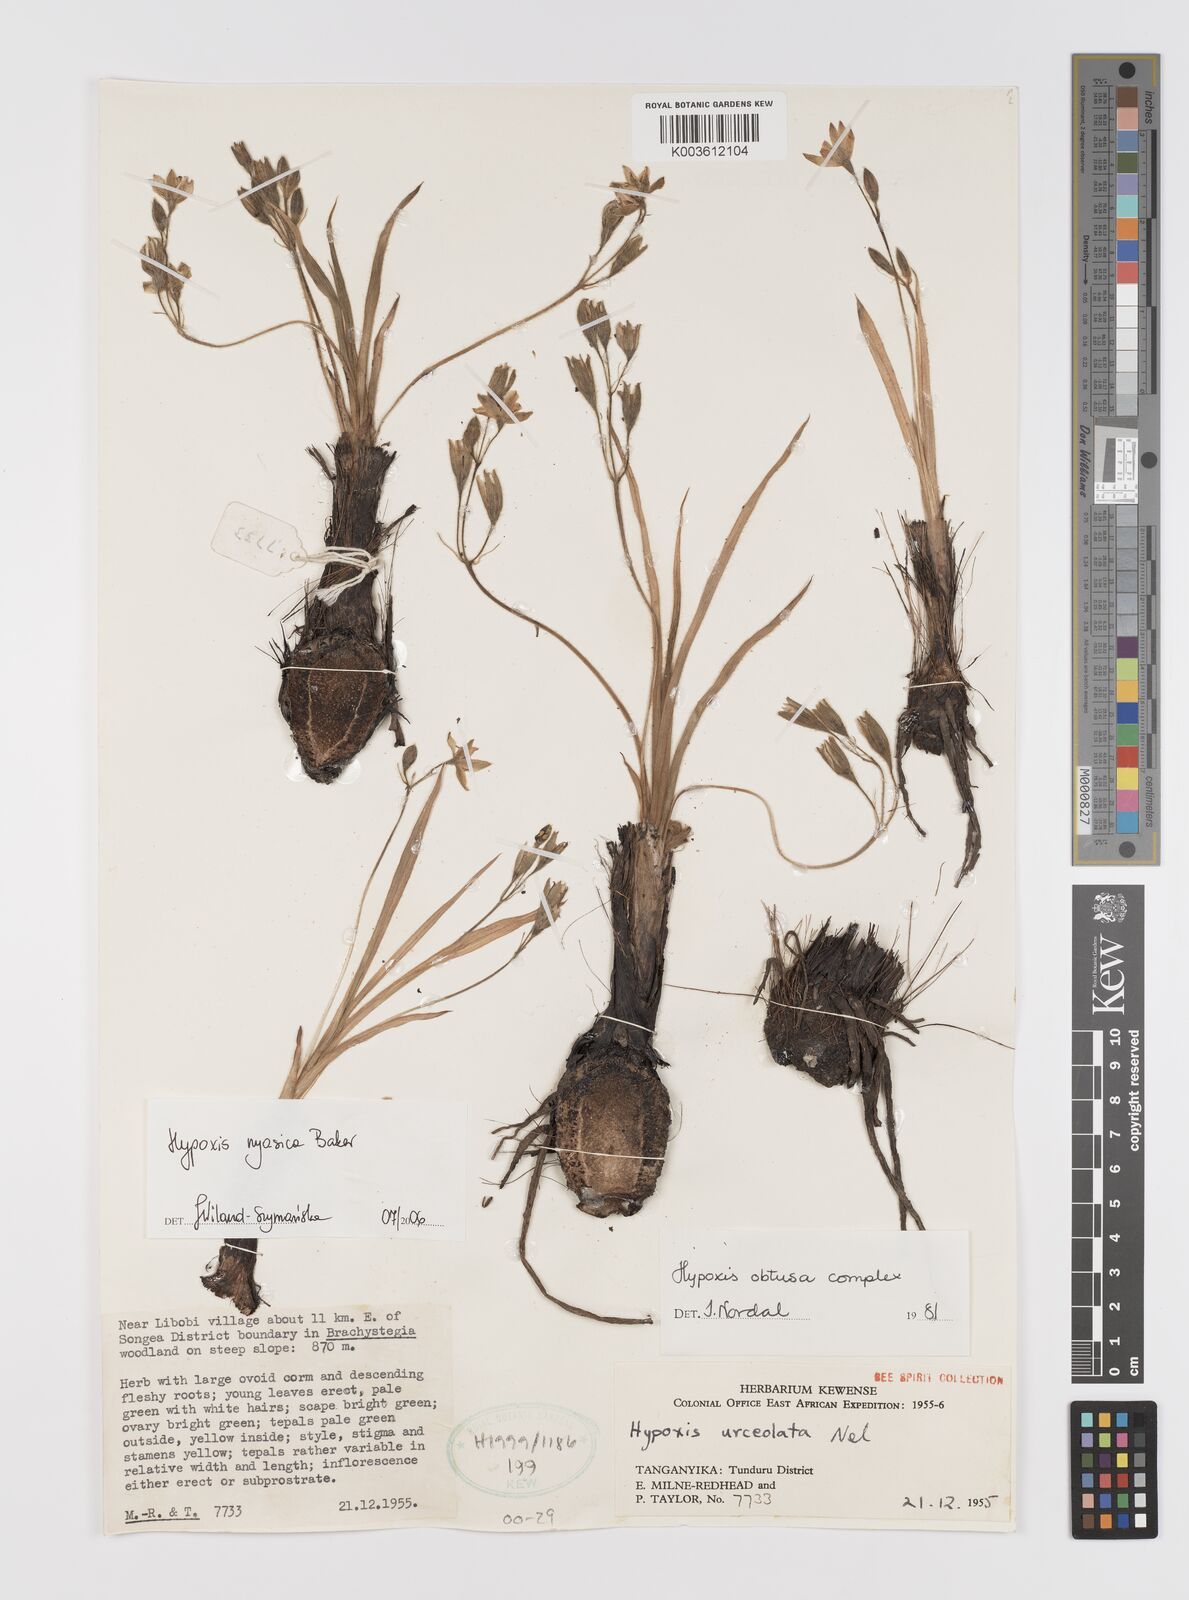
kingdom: Plantae
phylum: Tracheophyta
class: Liliopsida
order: Asparagales
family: Hypoxidaceae
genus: Hypoxis
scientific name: Hypoxis nyasica
